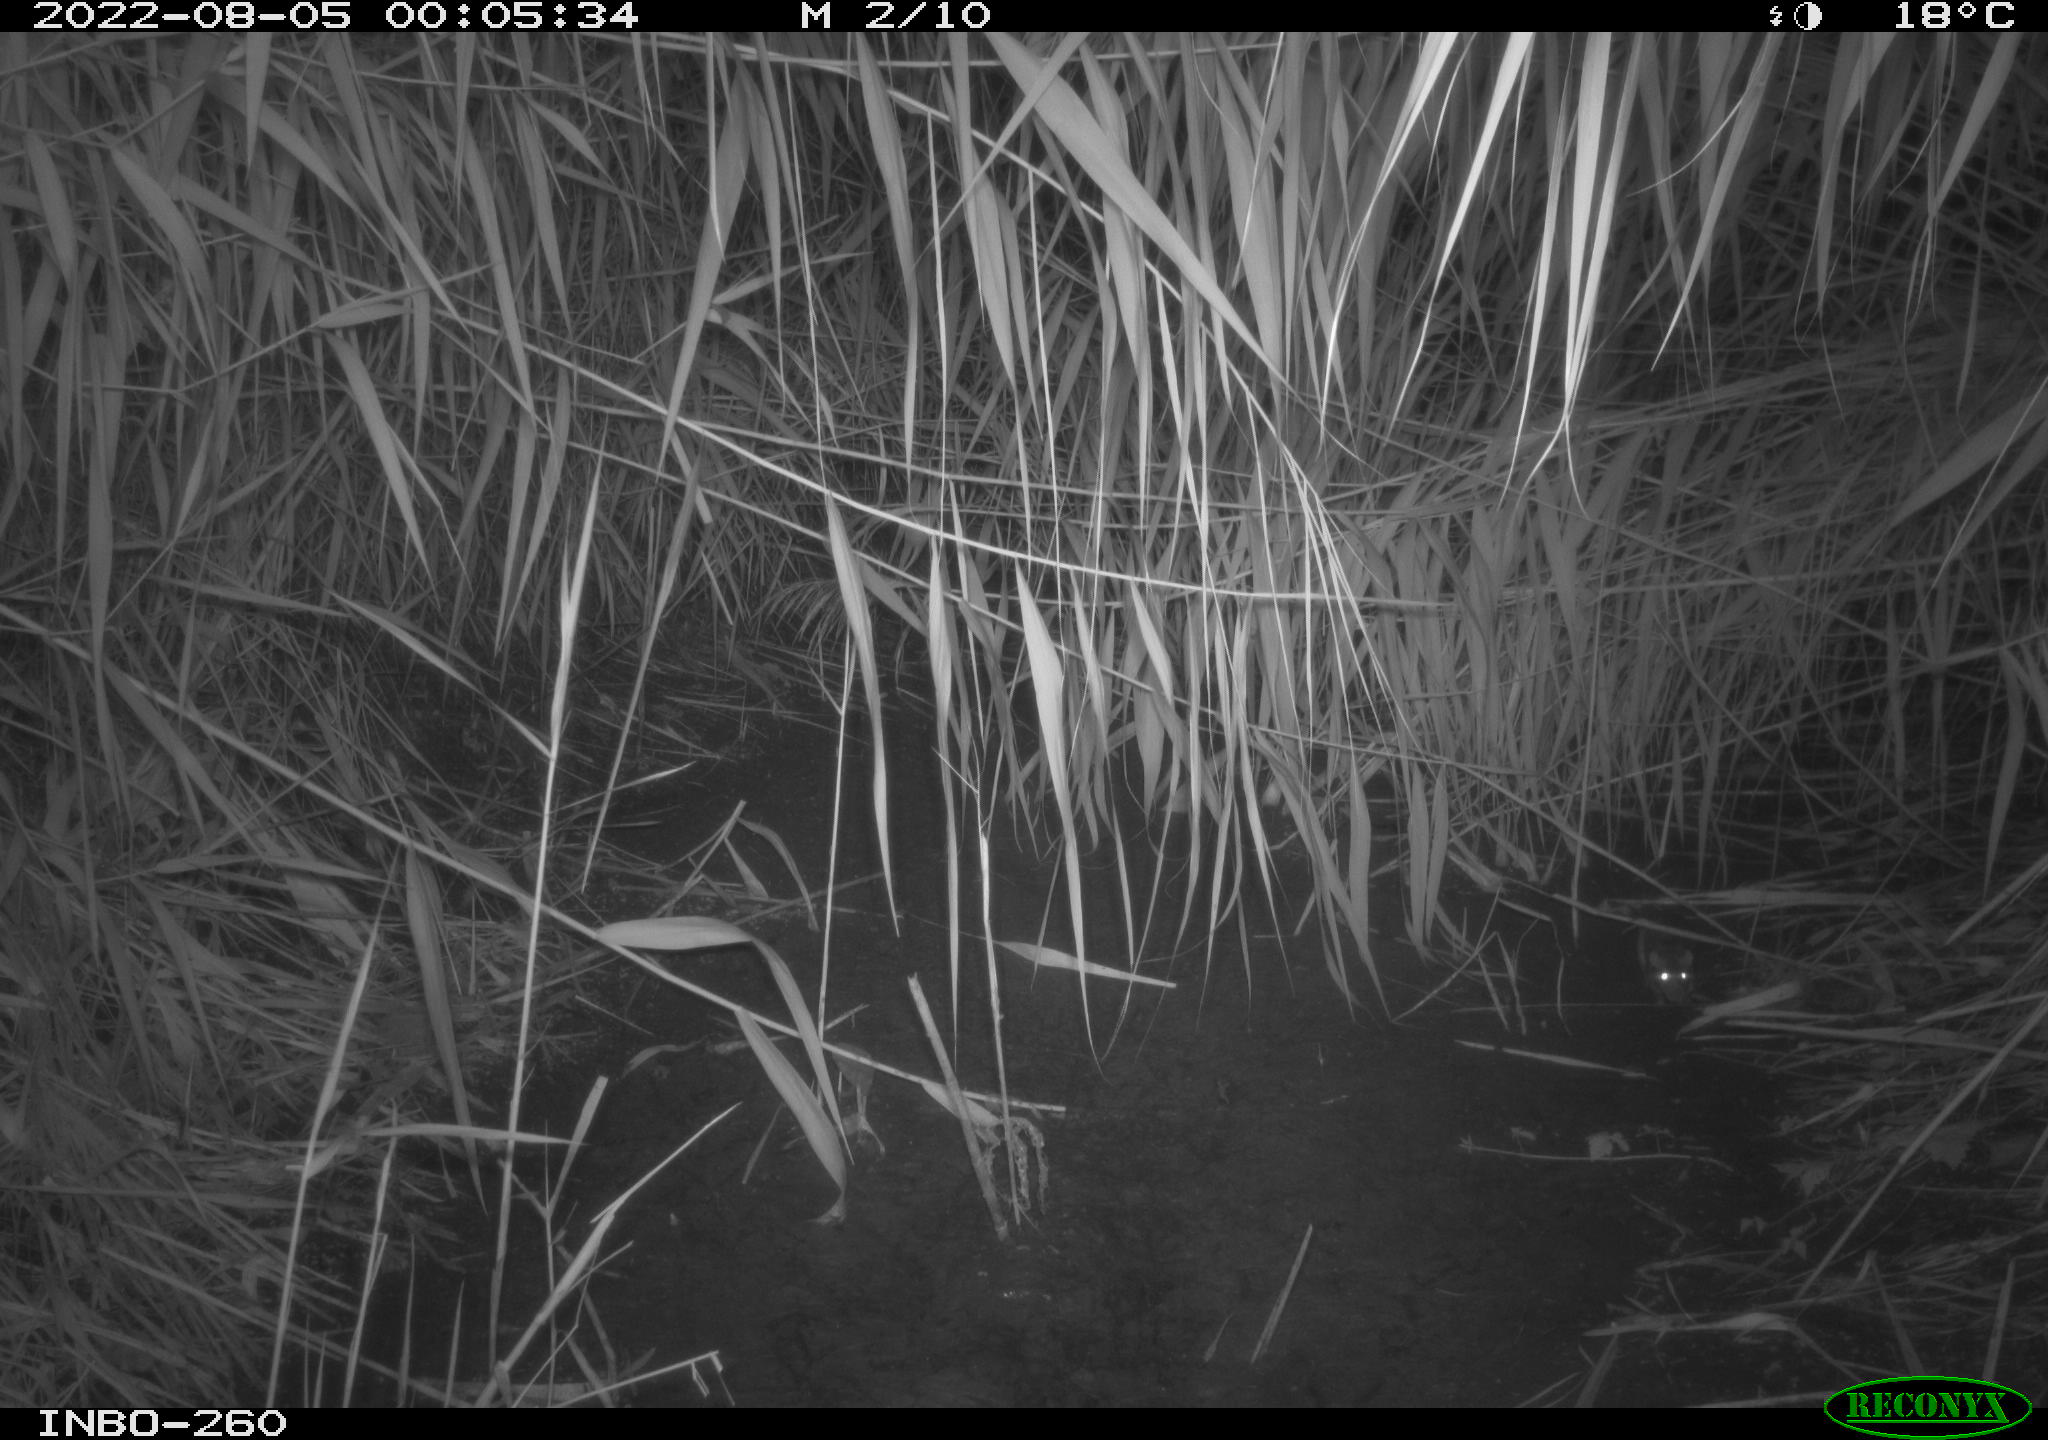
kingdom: Animalia
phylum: Chordata
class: Mammalia
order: Rodentia
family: Muridae
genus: Rattus
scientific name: Rattus norvegicus
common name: Brown rat
